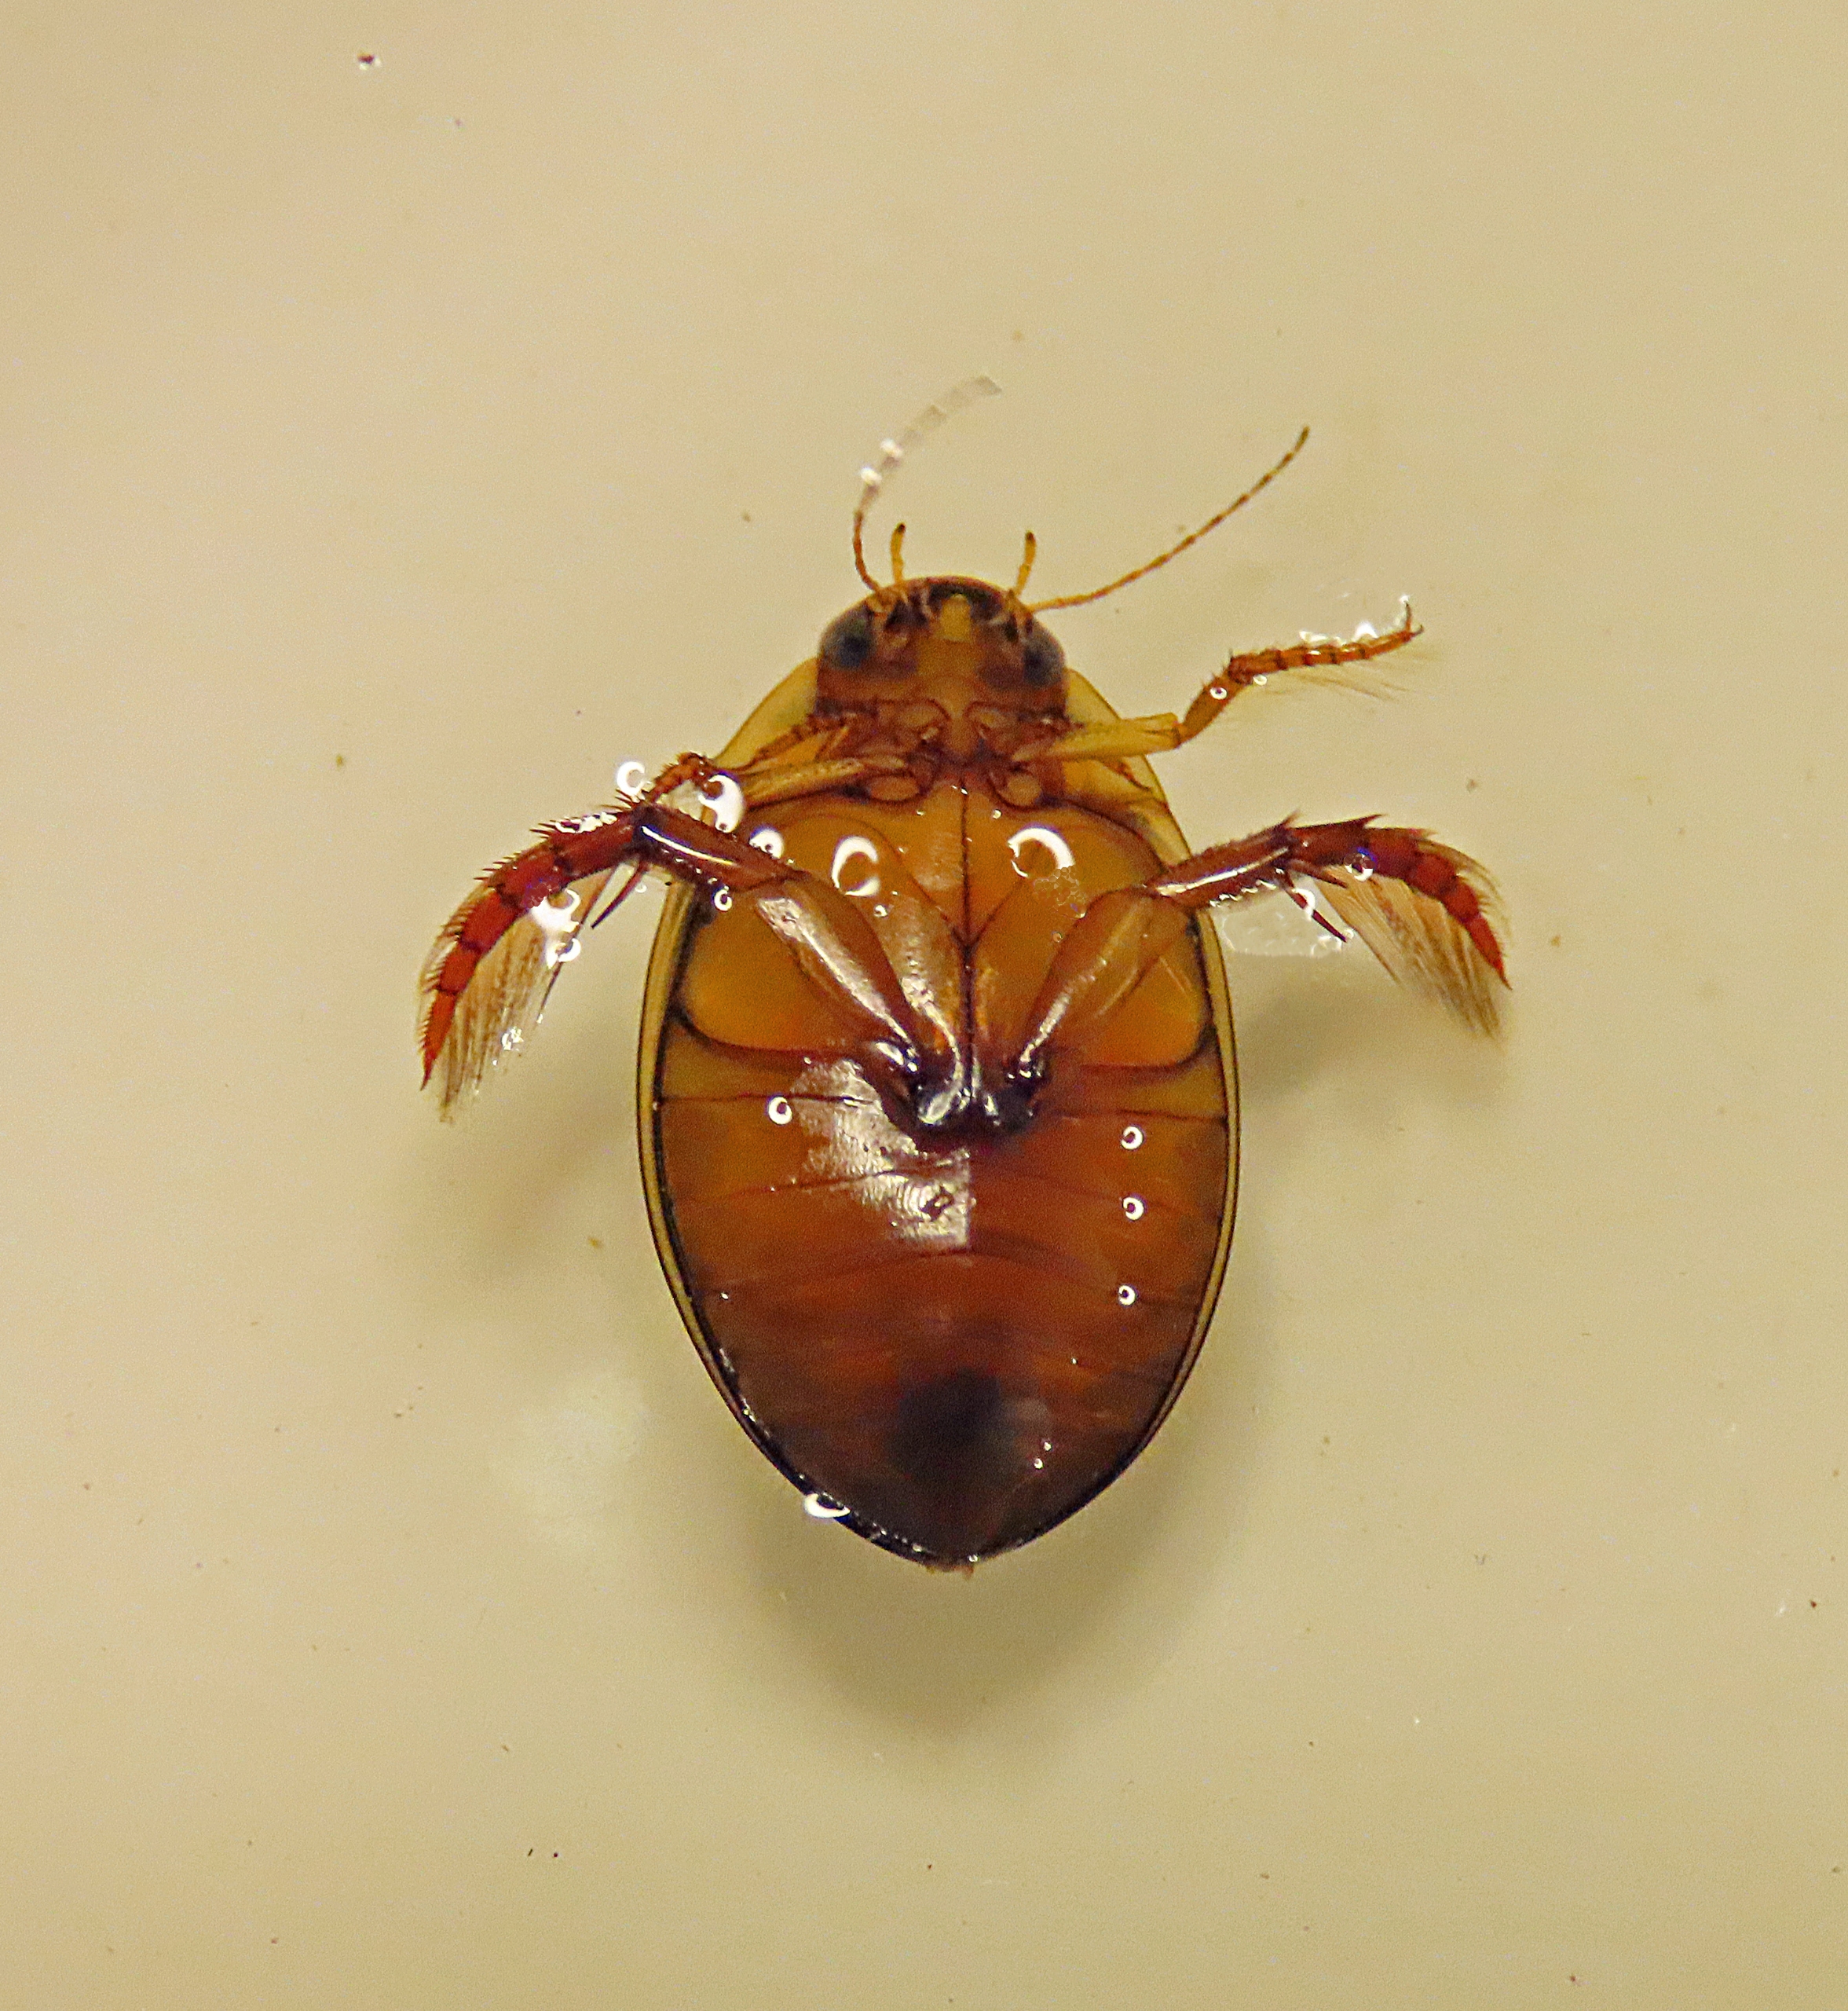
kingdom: Animalia
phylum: Arthropoda
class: Insecta
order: Coleoptera
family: Dytiscidae
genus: Graphoderus
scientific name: Graphoderus cinereus
